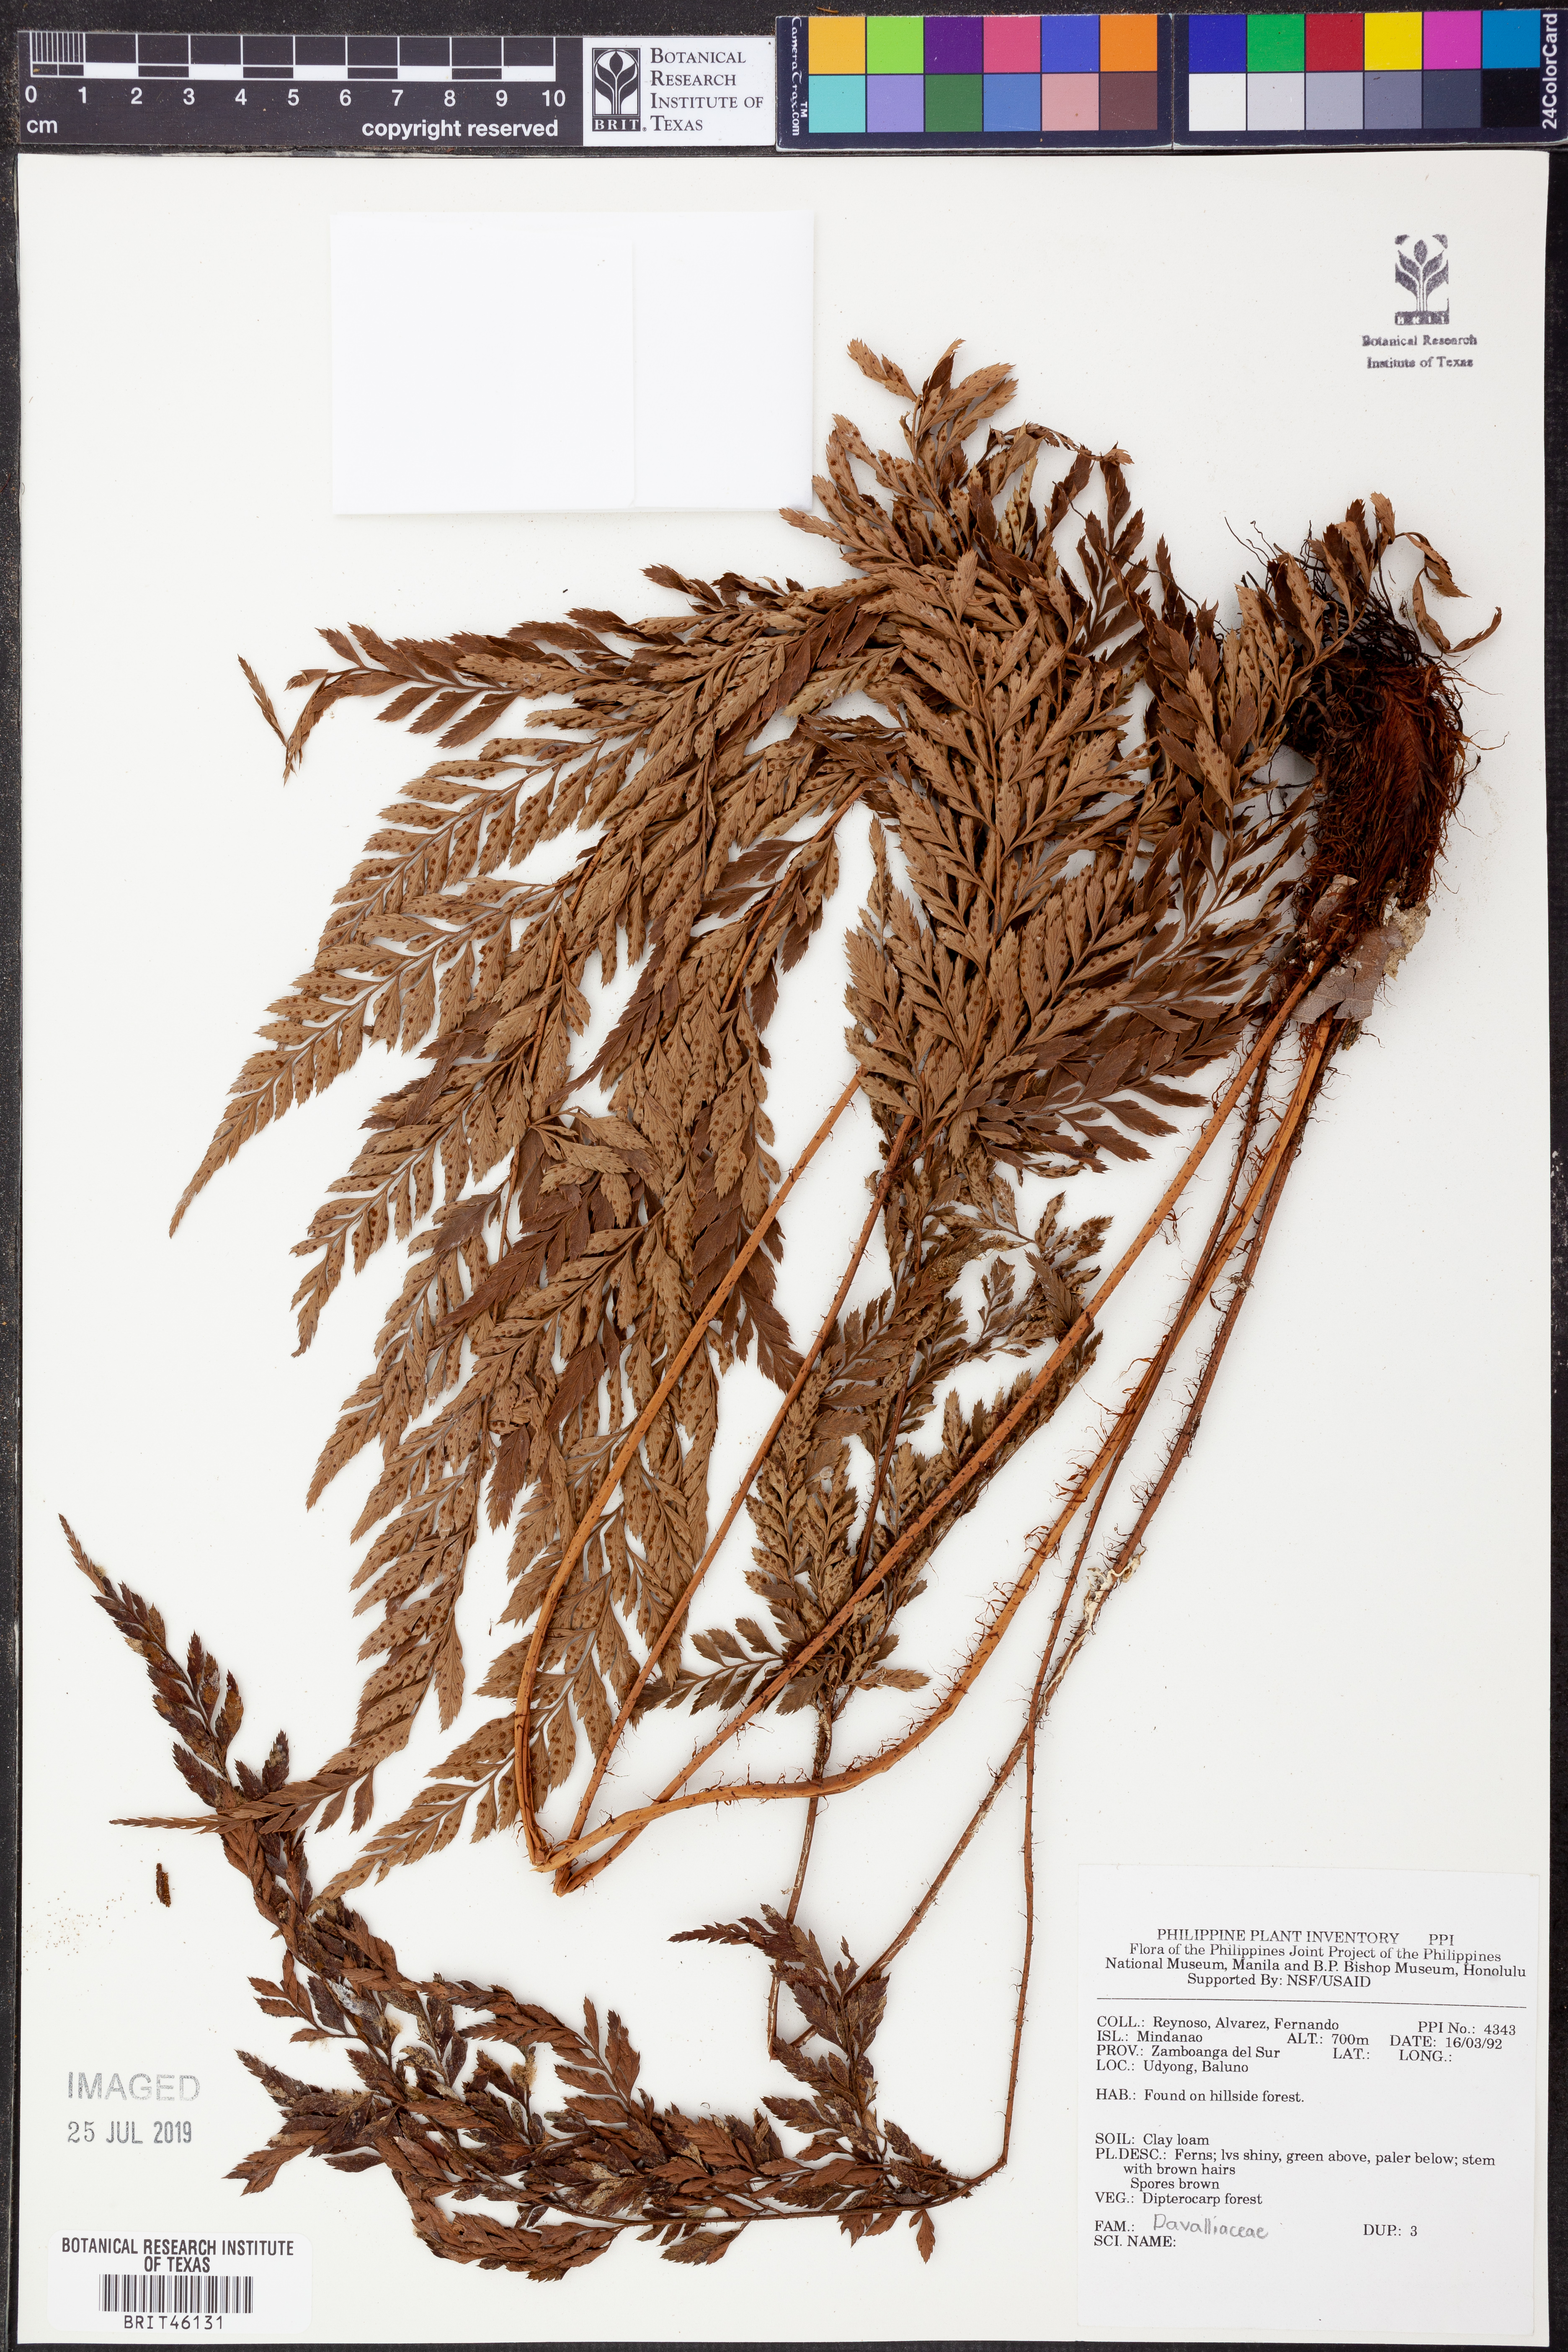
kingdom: Plantae
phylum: Tracheophyta
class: Polypodiopsida
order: Polypodiales
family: Davalliaceae
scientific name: Davalliaceae
